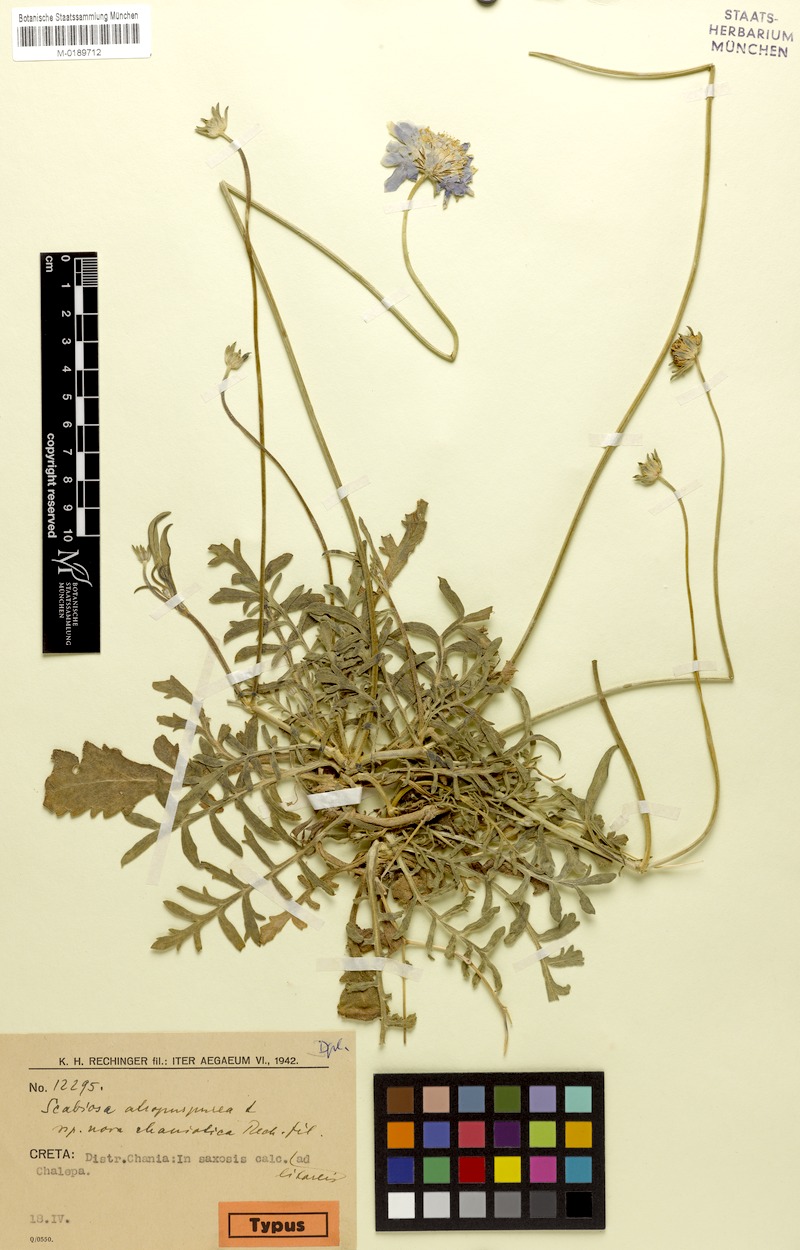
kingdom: Plantae
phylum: Tracheophyta
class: Magnoliopsida
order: Dipsacales
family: Caprifoliaceae
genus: Sixalix
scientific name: Sixalix atropurpurea
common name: Sweet scabious
